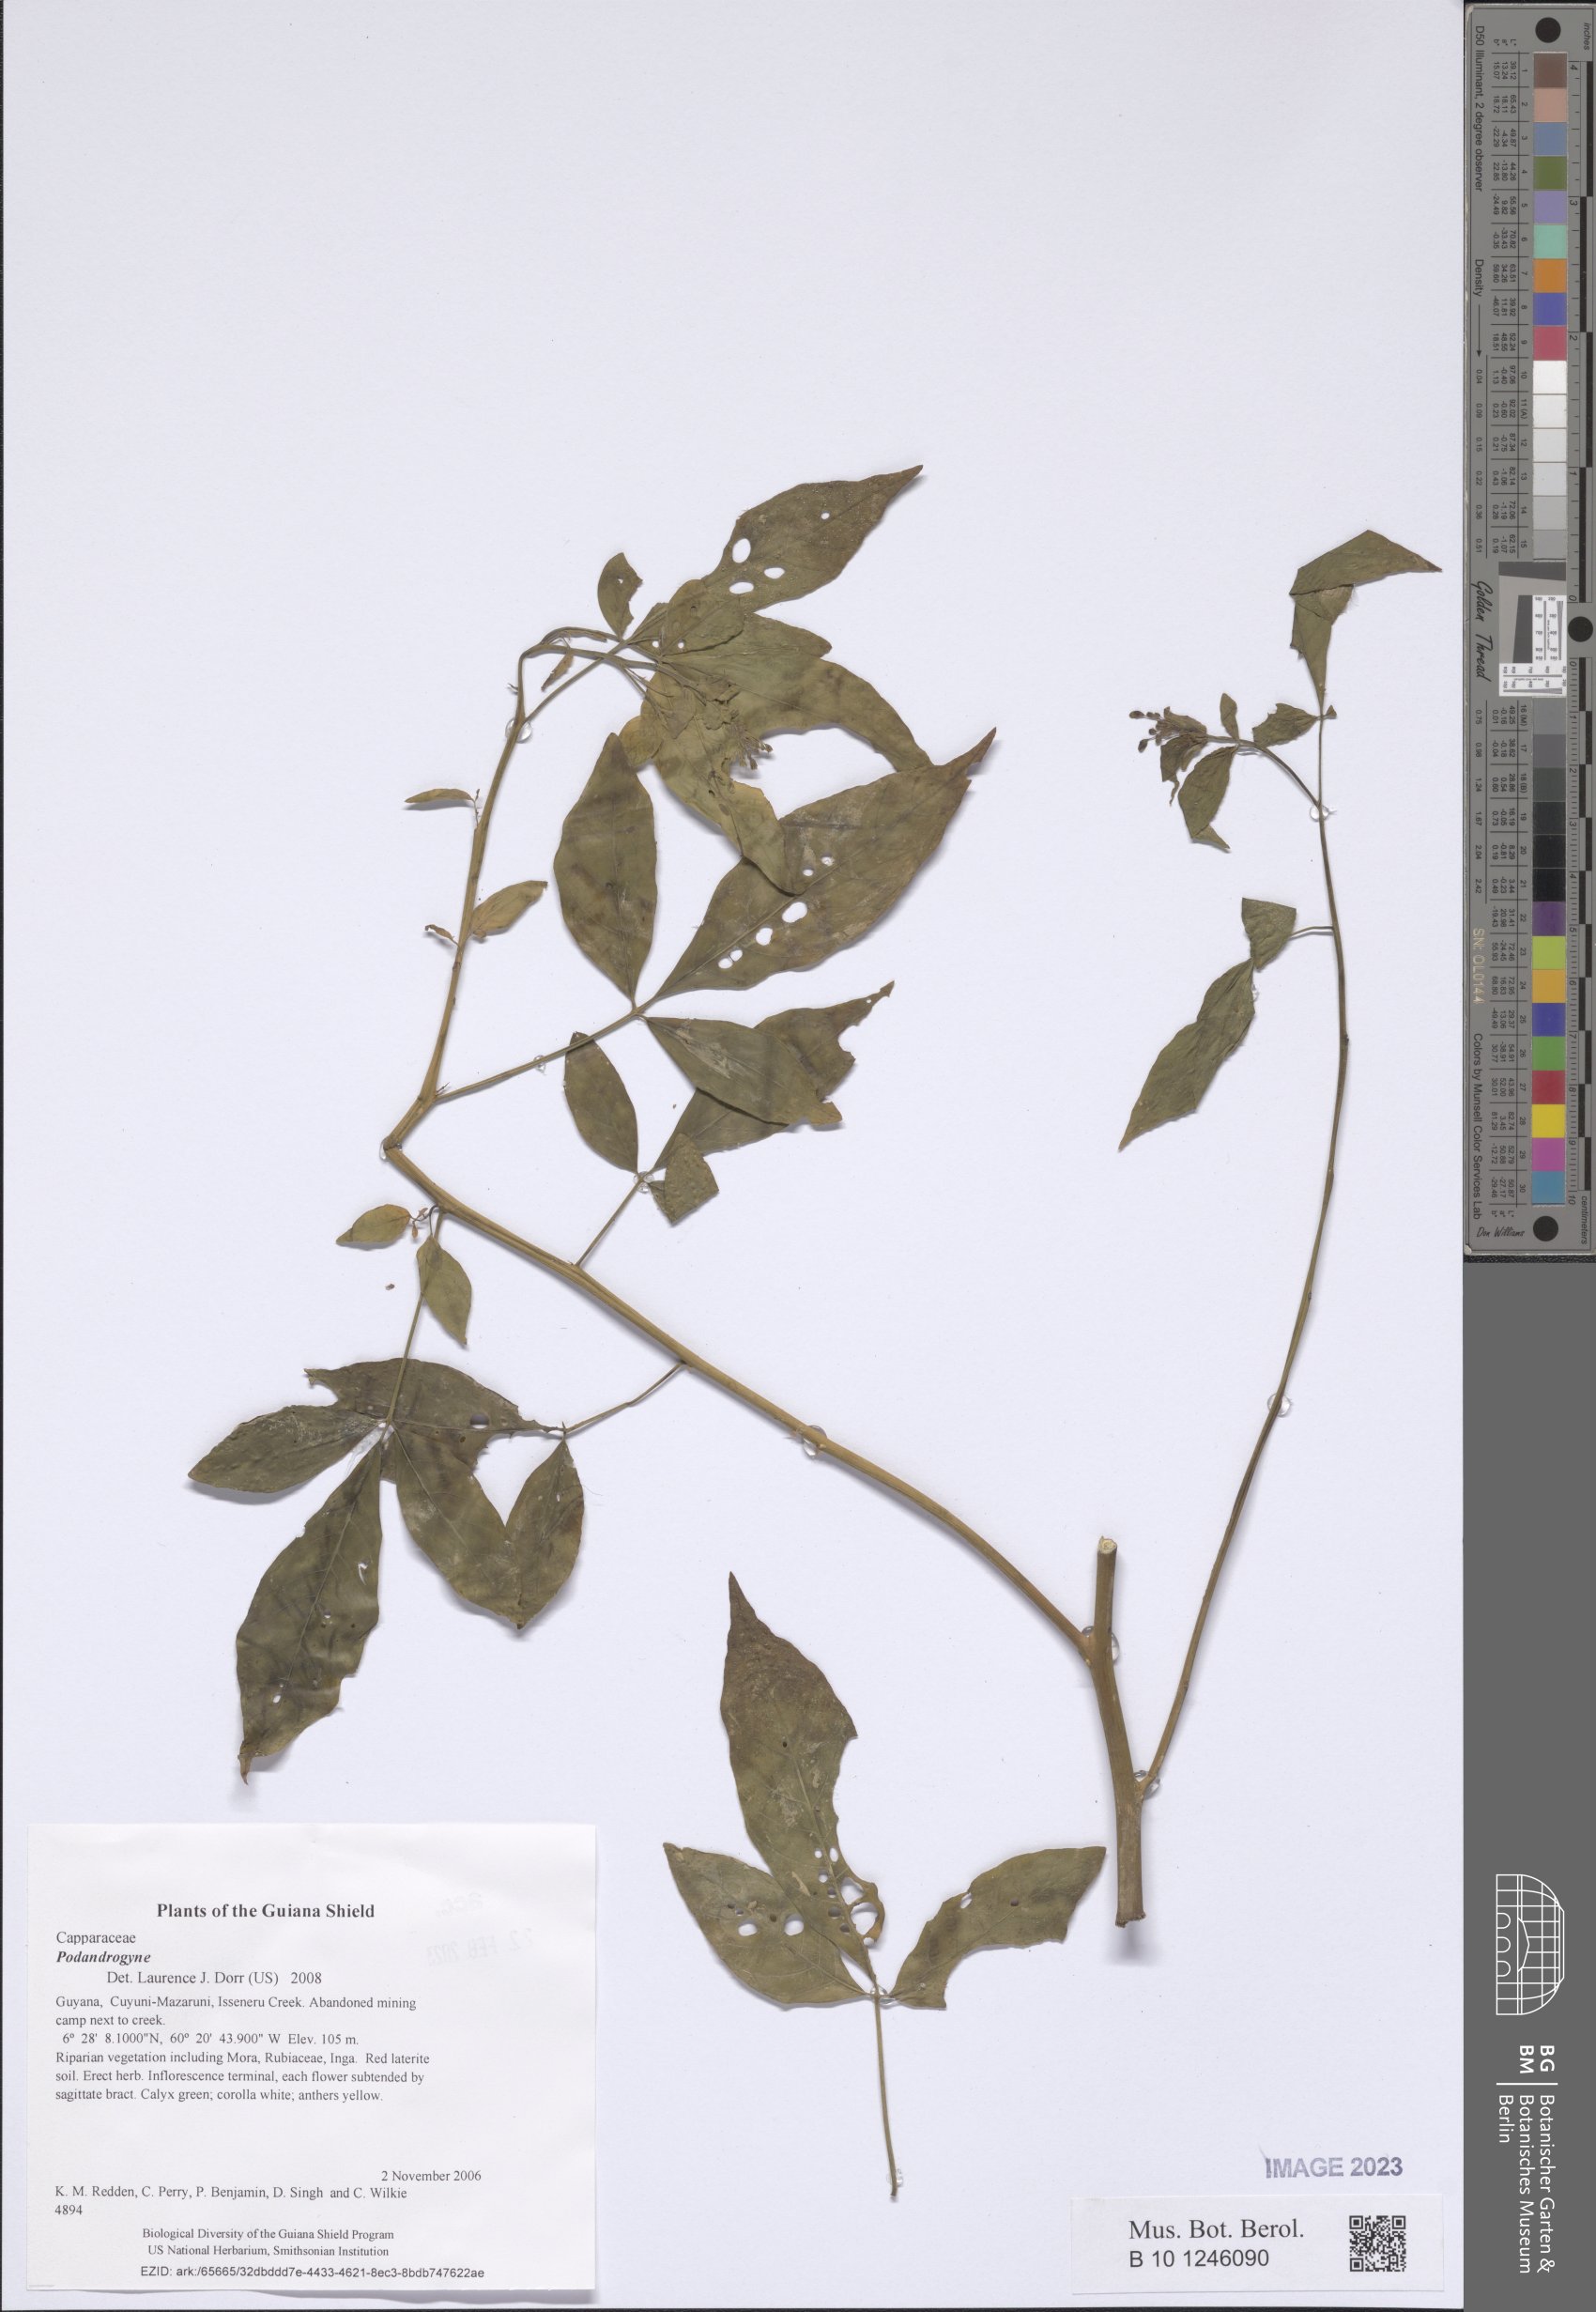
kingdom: Plantae
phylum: Tracheophyta
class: Magnoliopsida
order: Brassicales
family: Cleomaceae
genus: Podandrogyne
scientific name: Podandrogyne
